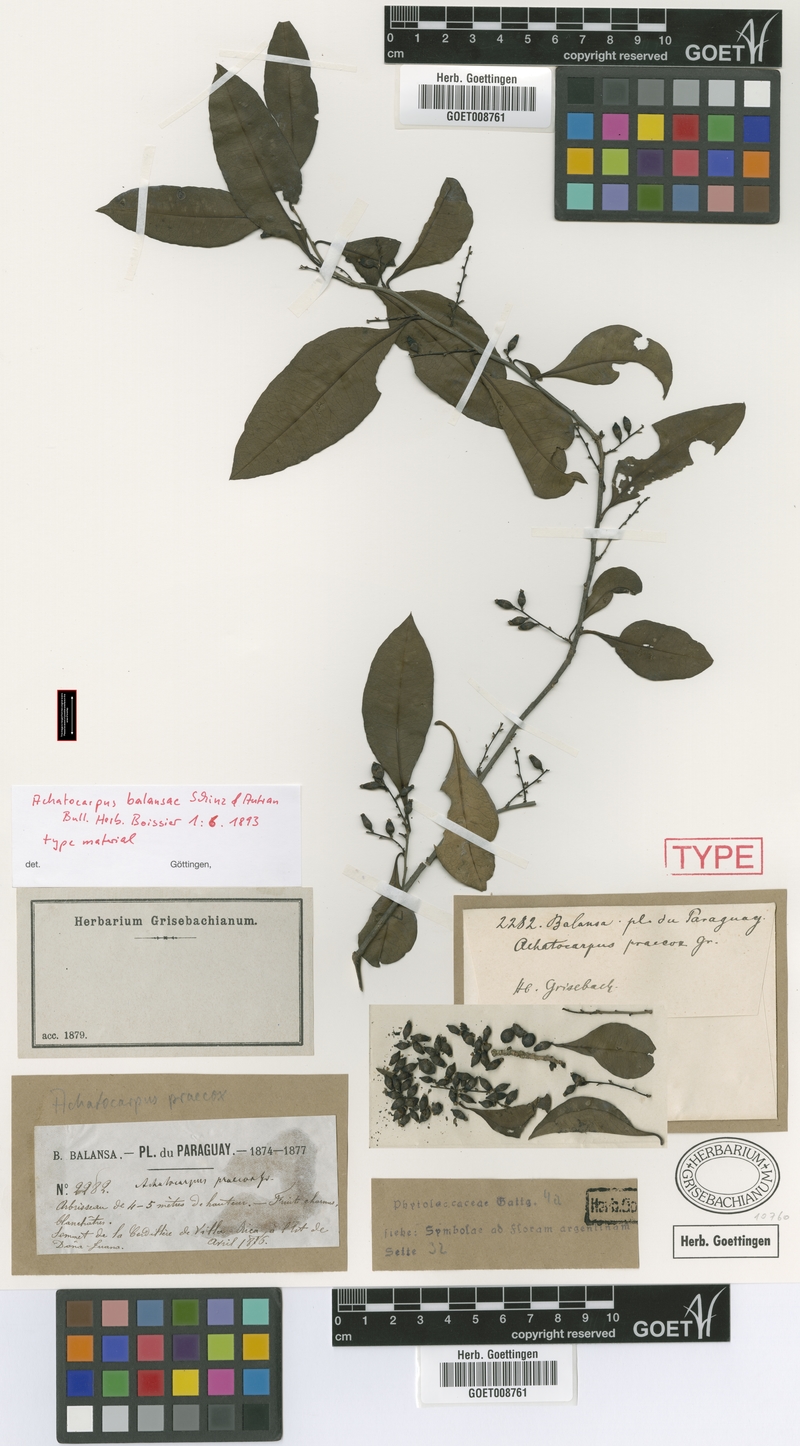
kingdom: Plantae
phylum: Tracheophyta
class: Magnoliopsida
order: Caryophyllales
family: Achatocarpaceae
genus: Achatocarpus
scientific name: Achatocarpus balansae
